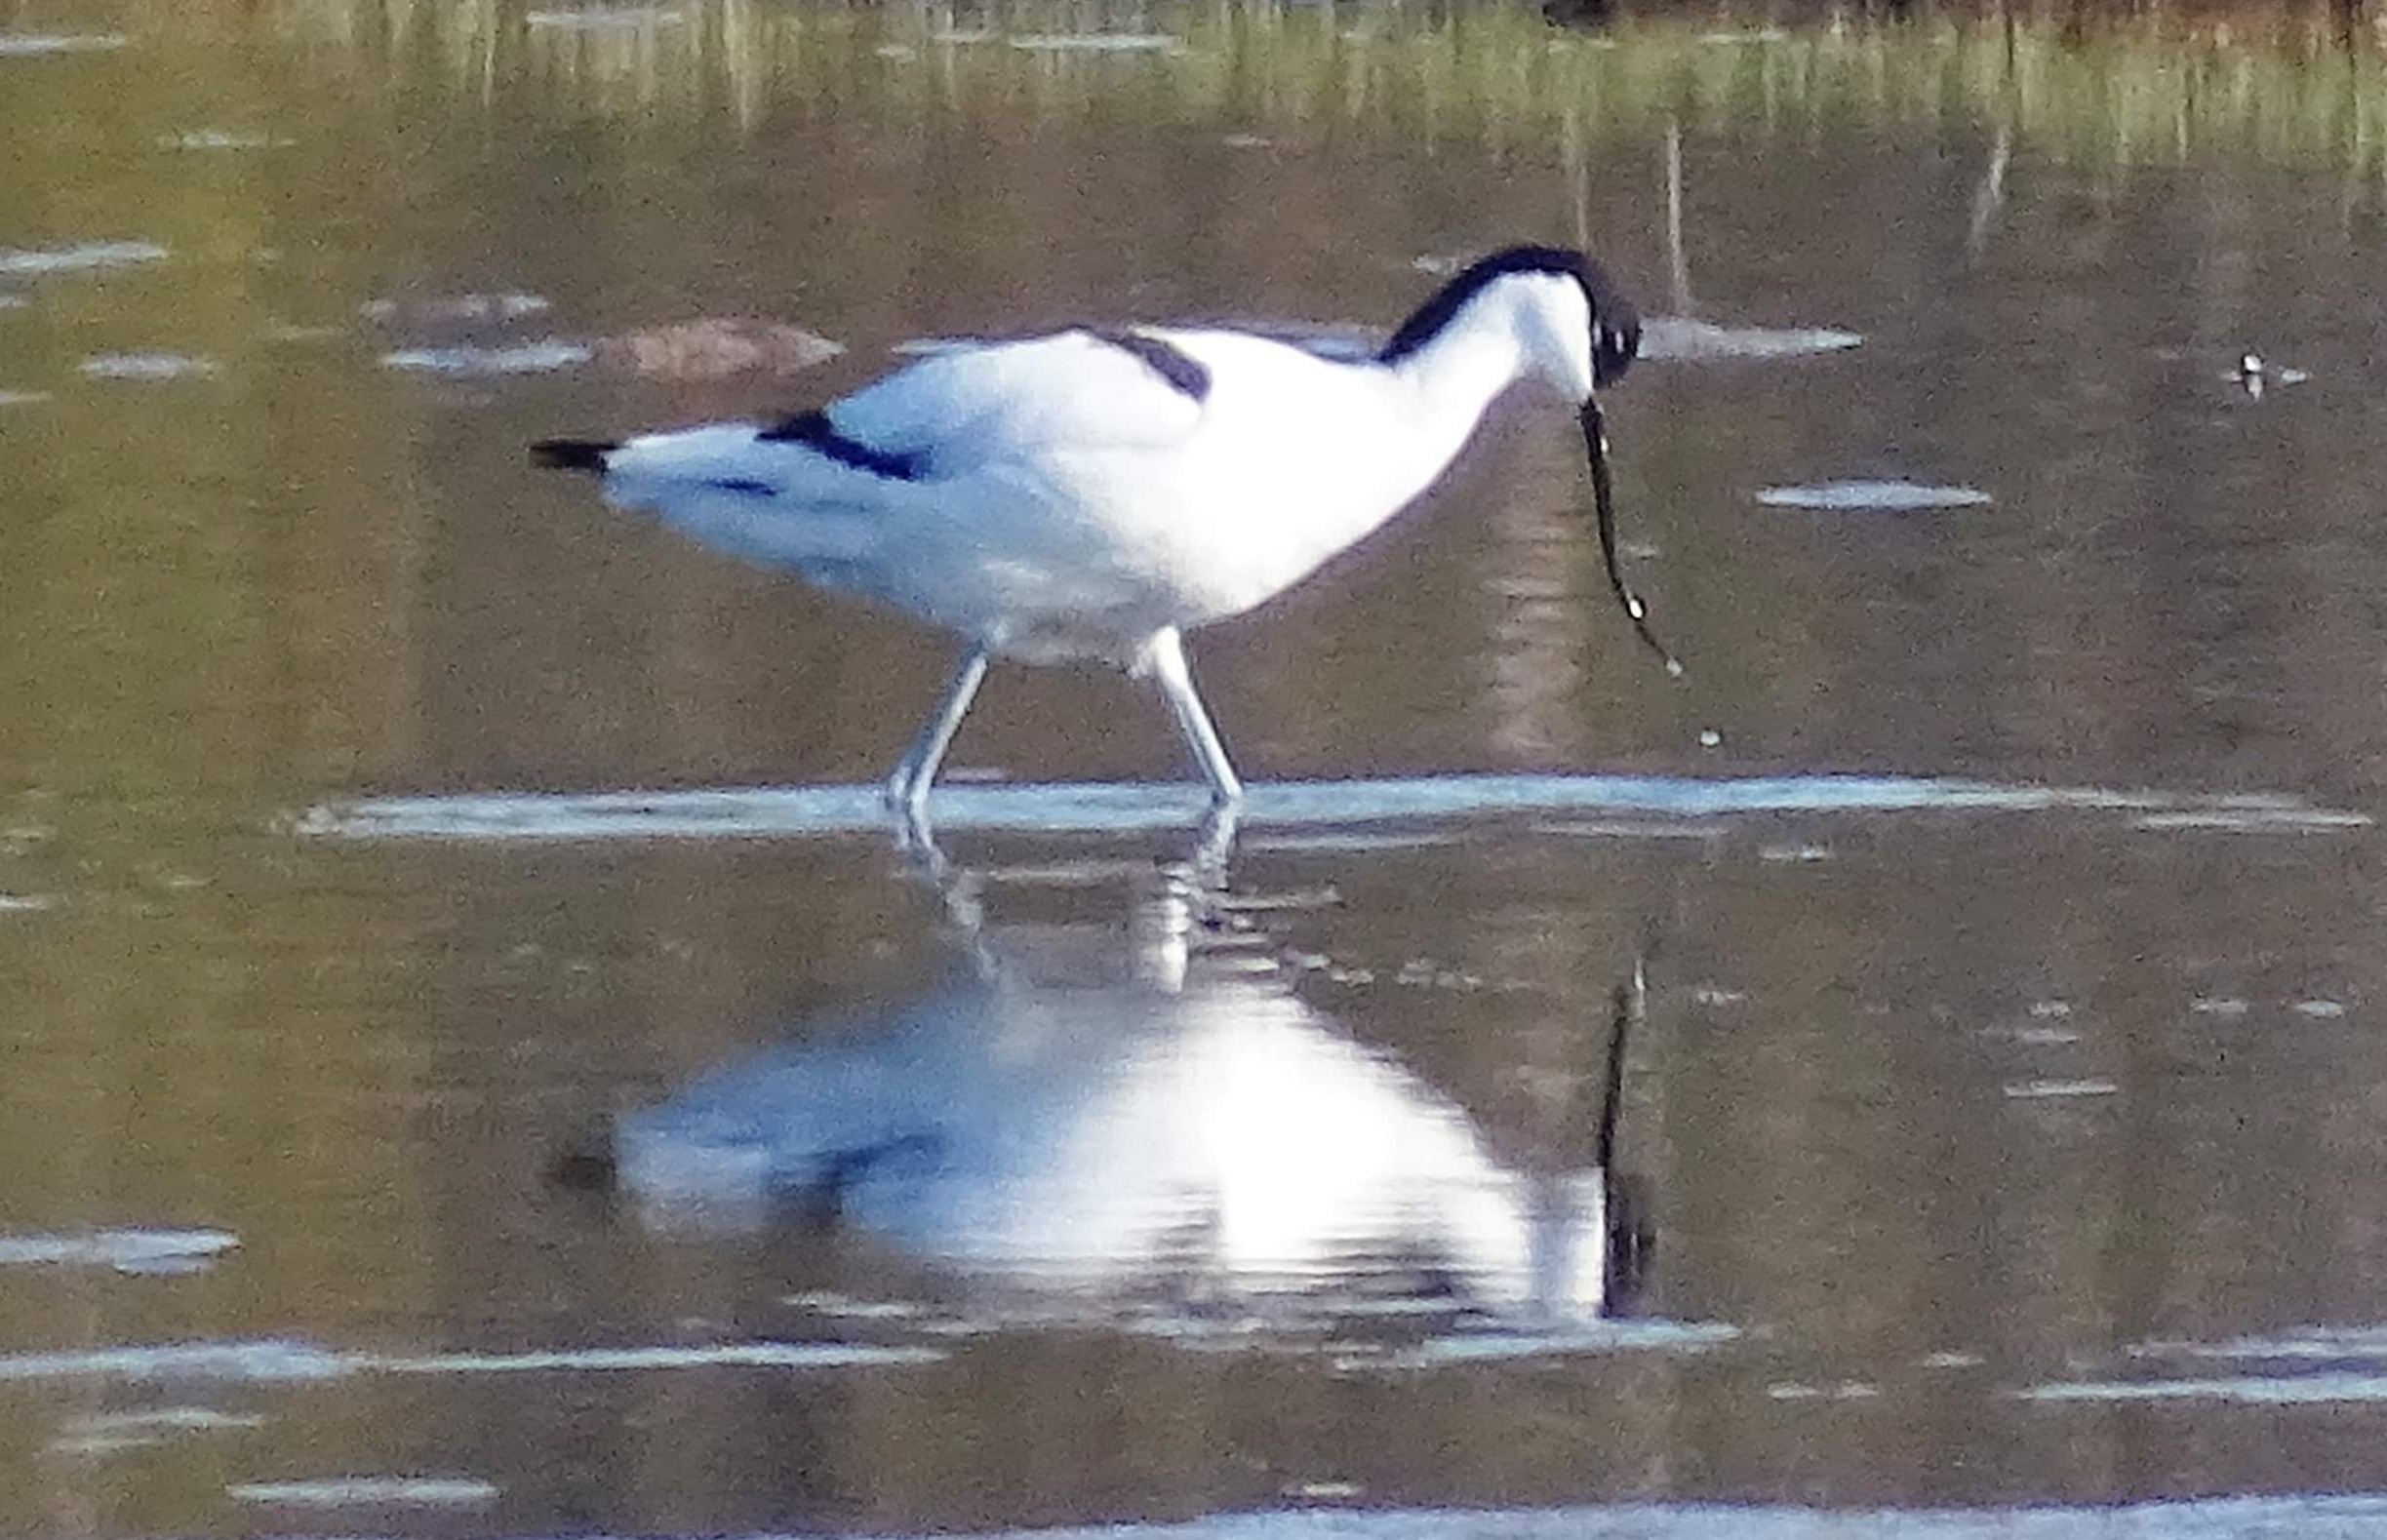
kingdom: Animalia
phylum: Chordata
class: Aves
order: Charadriiformes
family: Recurvirostridae
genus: Recurvirostra
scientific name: Recurvirostra avosetta
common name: Klyde
